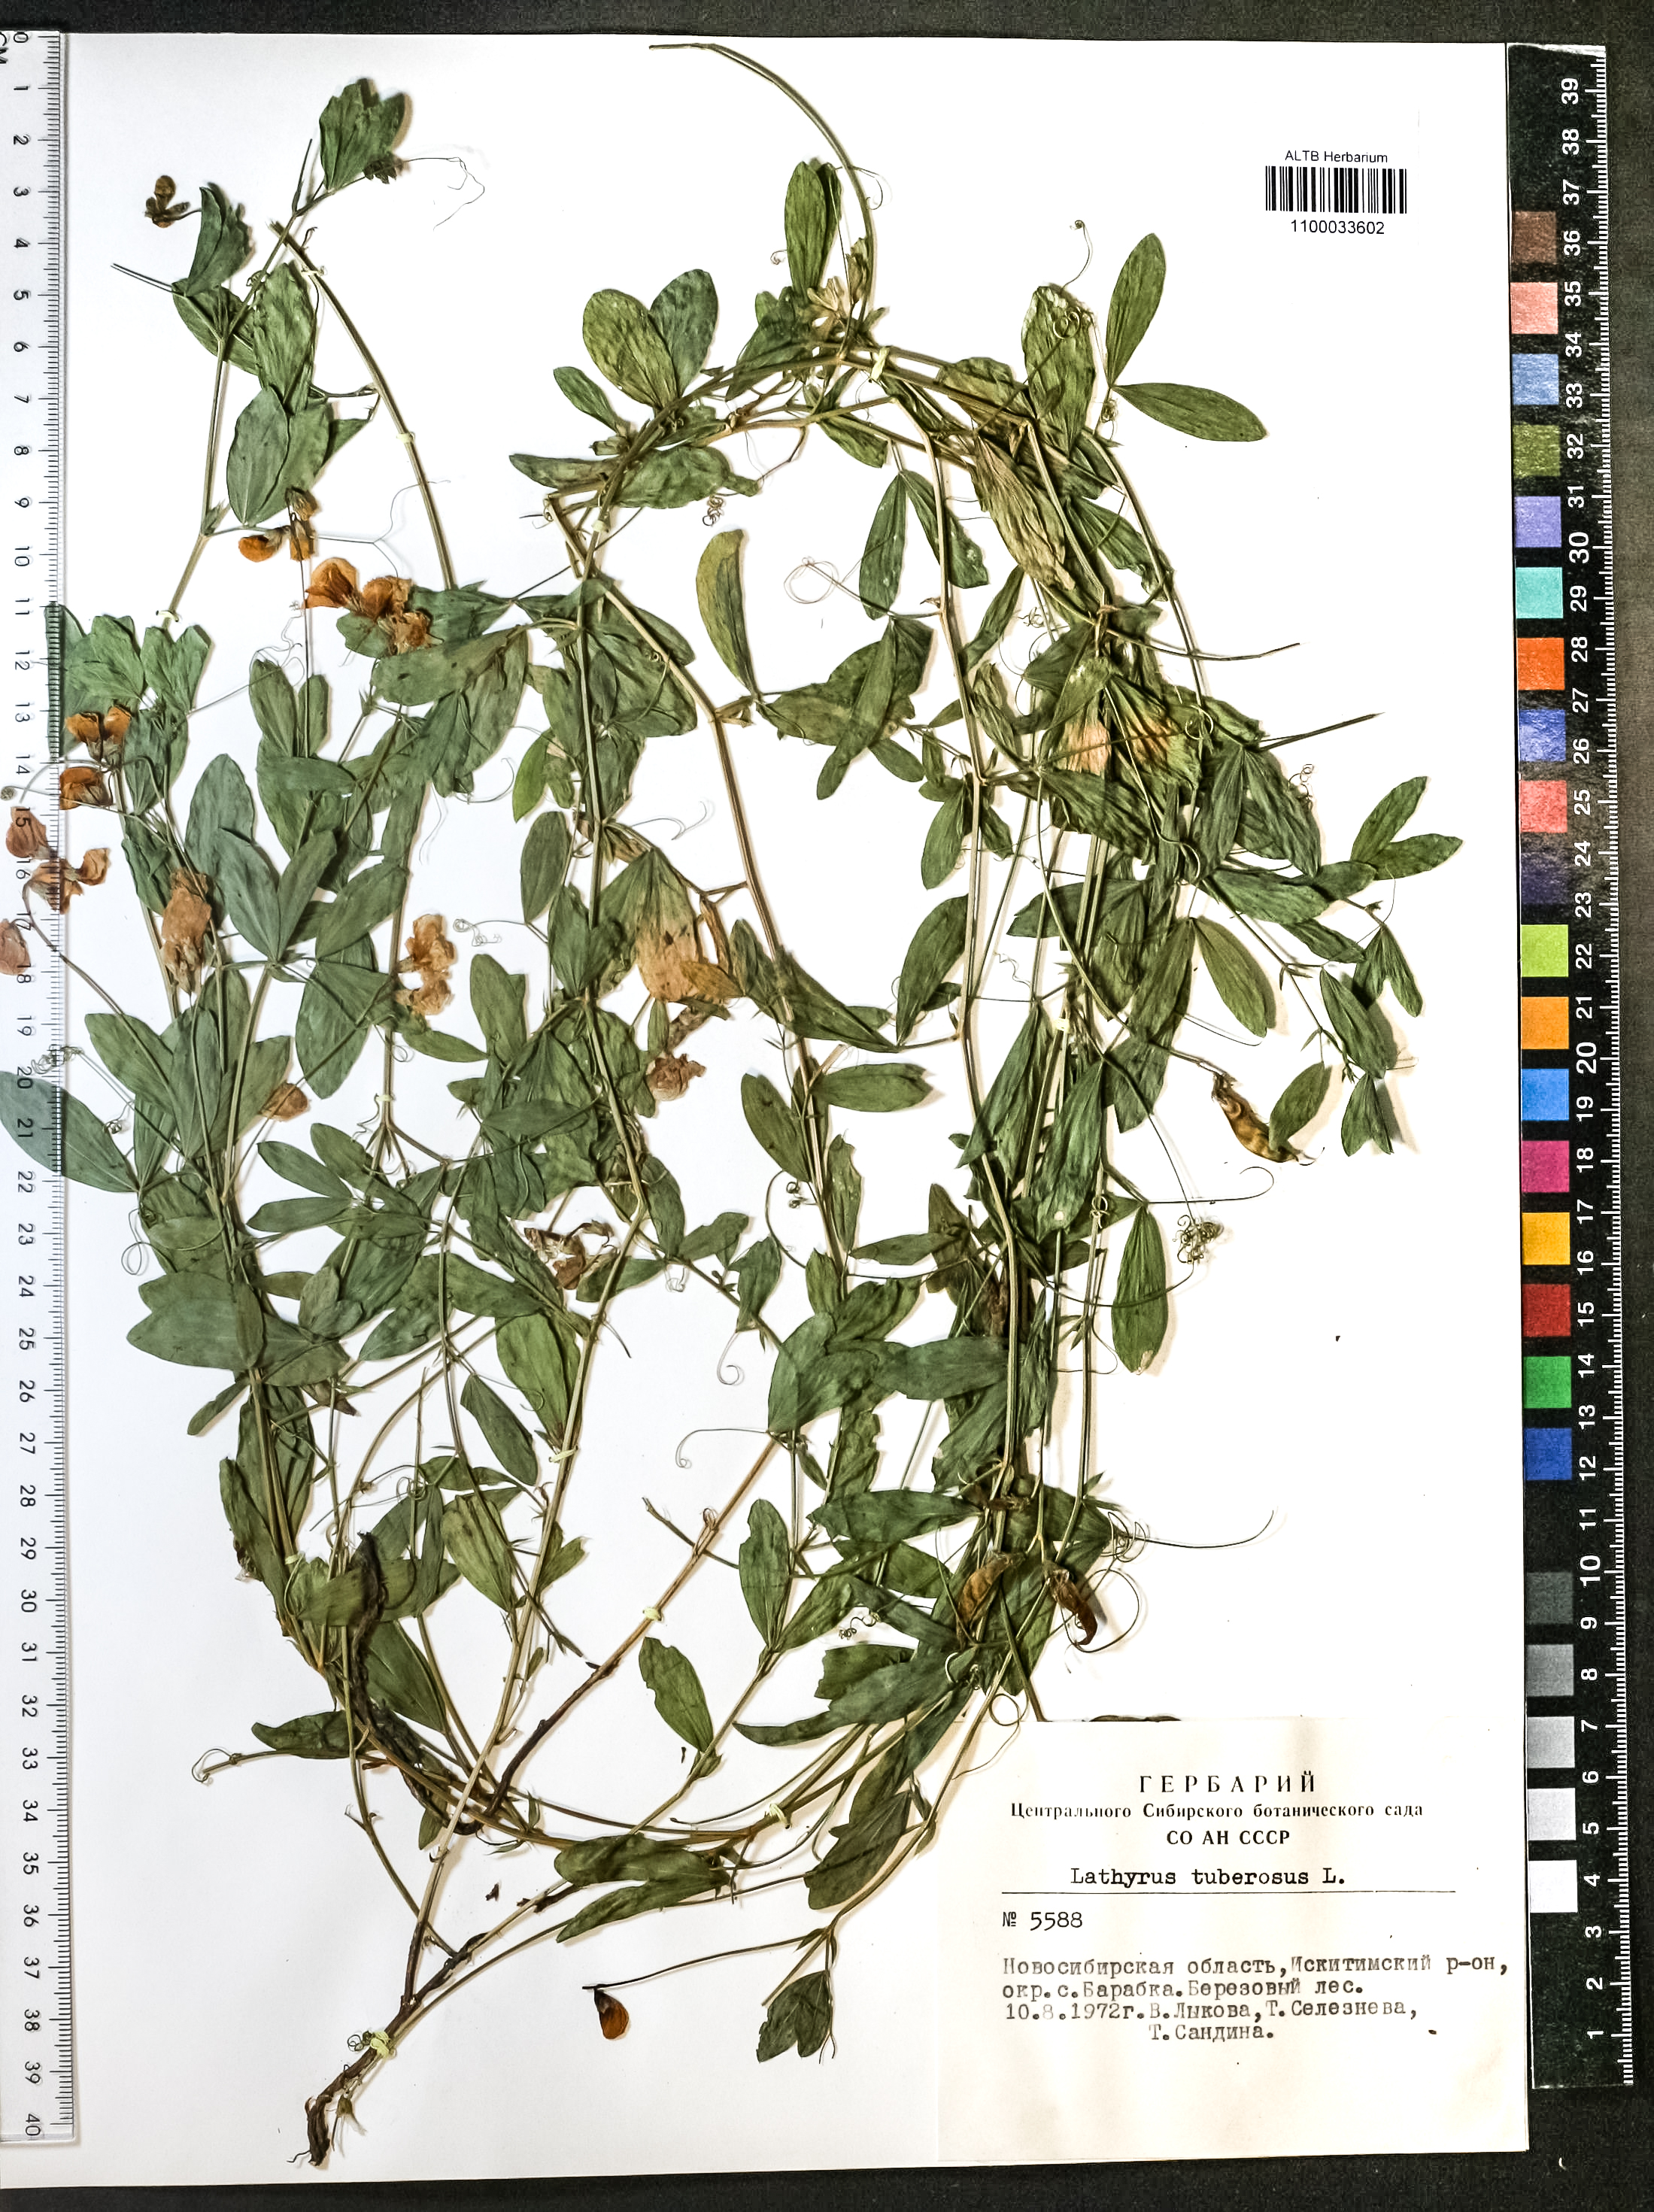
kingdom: Plantae
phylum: Tracheophyta
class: Magnoliopsida
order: Fabales
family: Fabaceae
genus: Lathyrus
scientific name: Lathyrus tuberosus
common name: Tuberous pea
